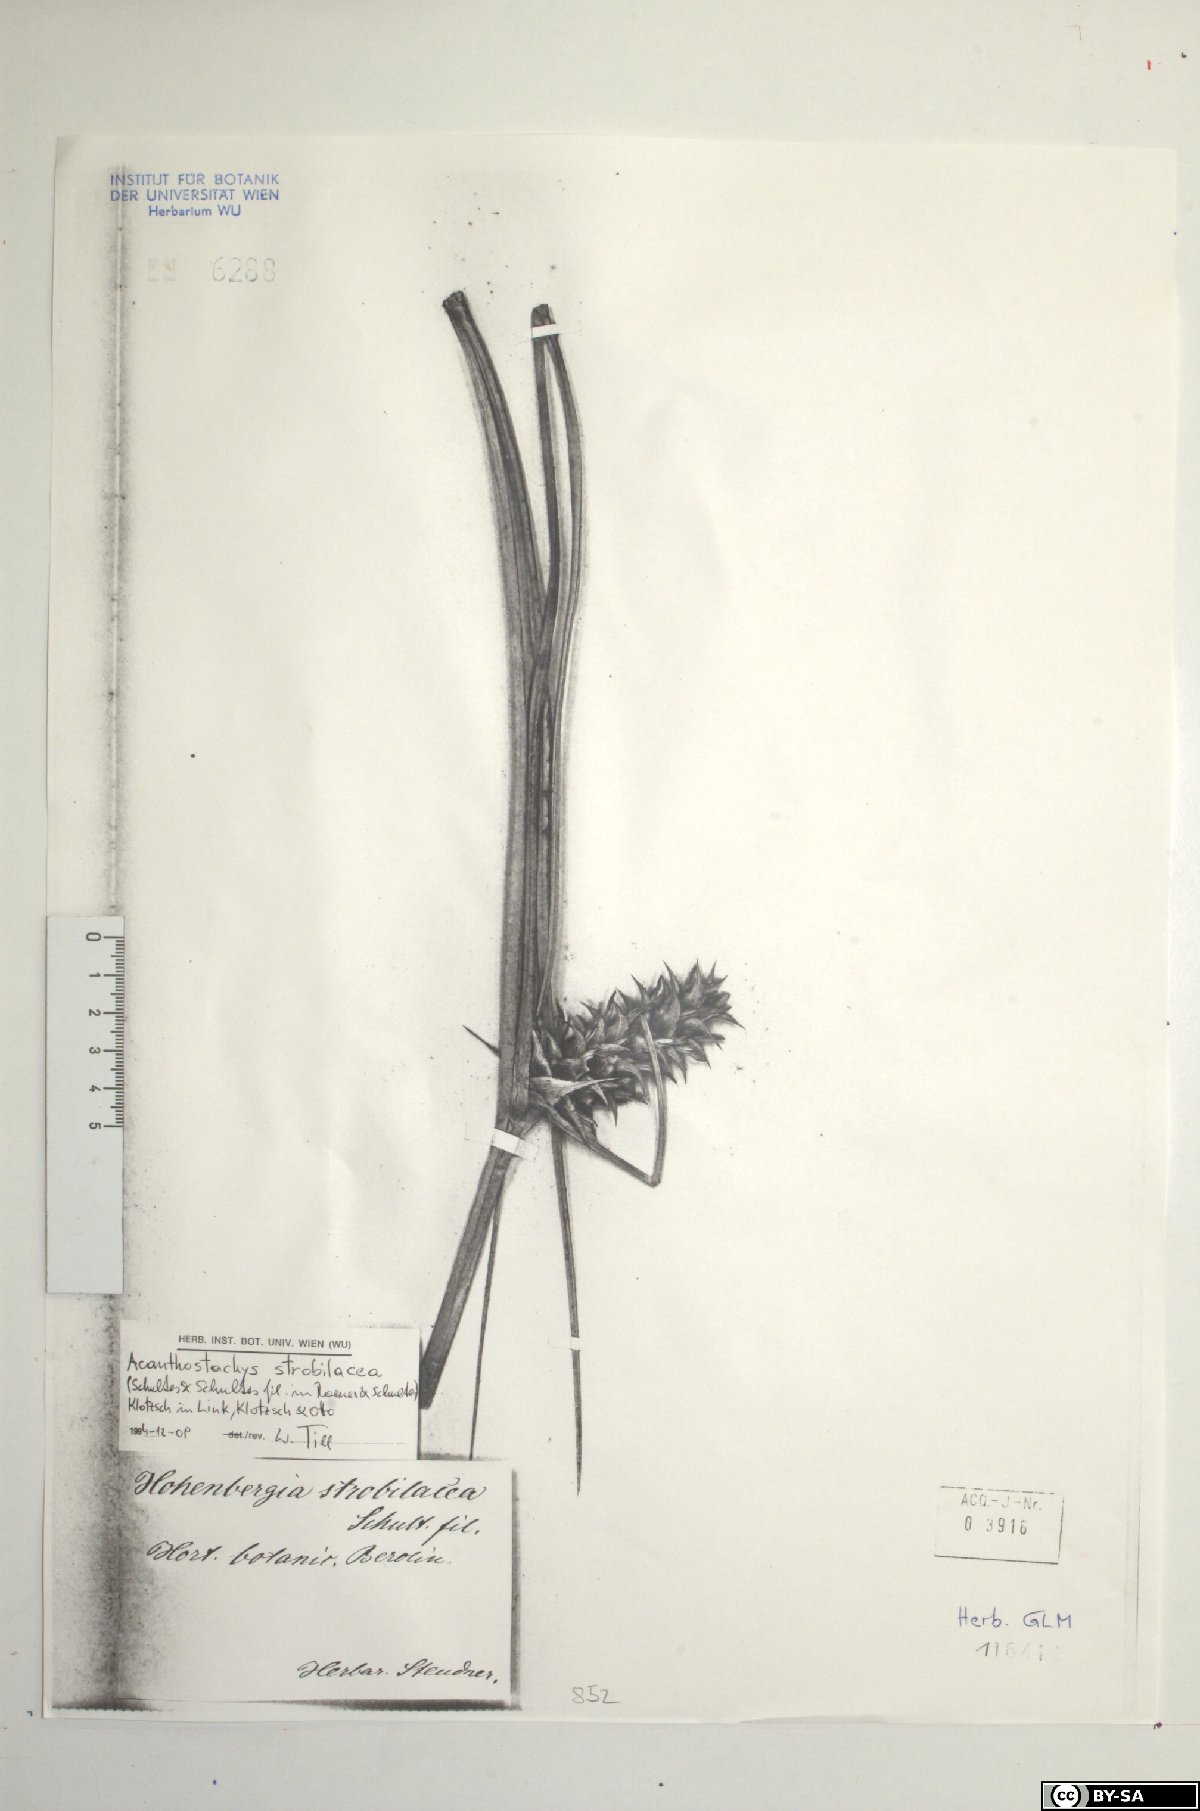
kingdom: Plantae
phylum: Tracheophyta
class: Liliopsida
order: Poales
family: Bromeliaceae
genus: Acanthostachys
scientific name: Acanthostachys strobilacea
